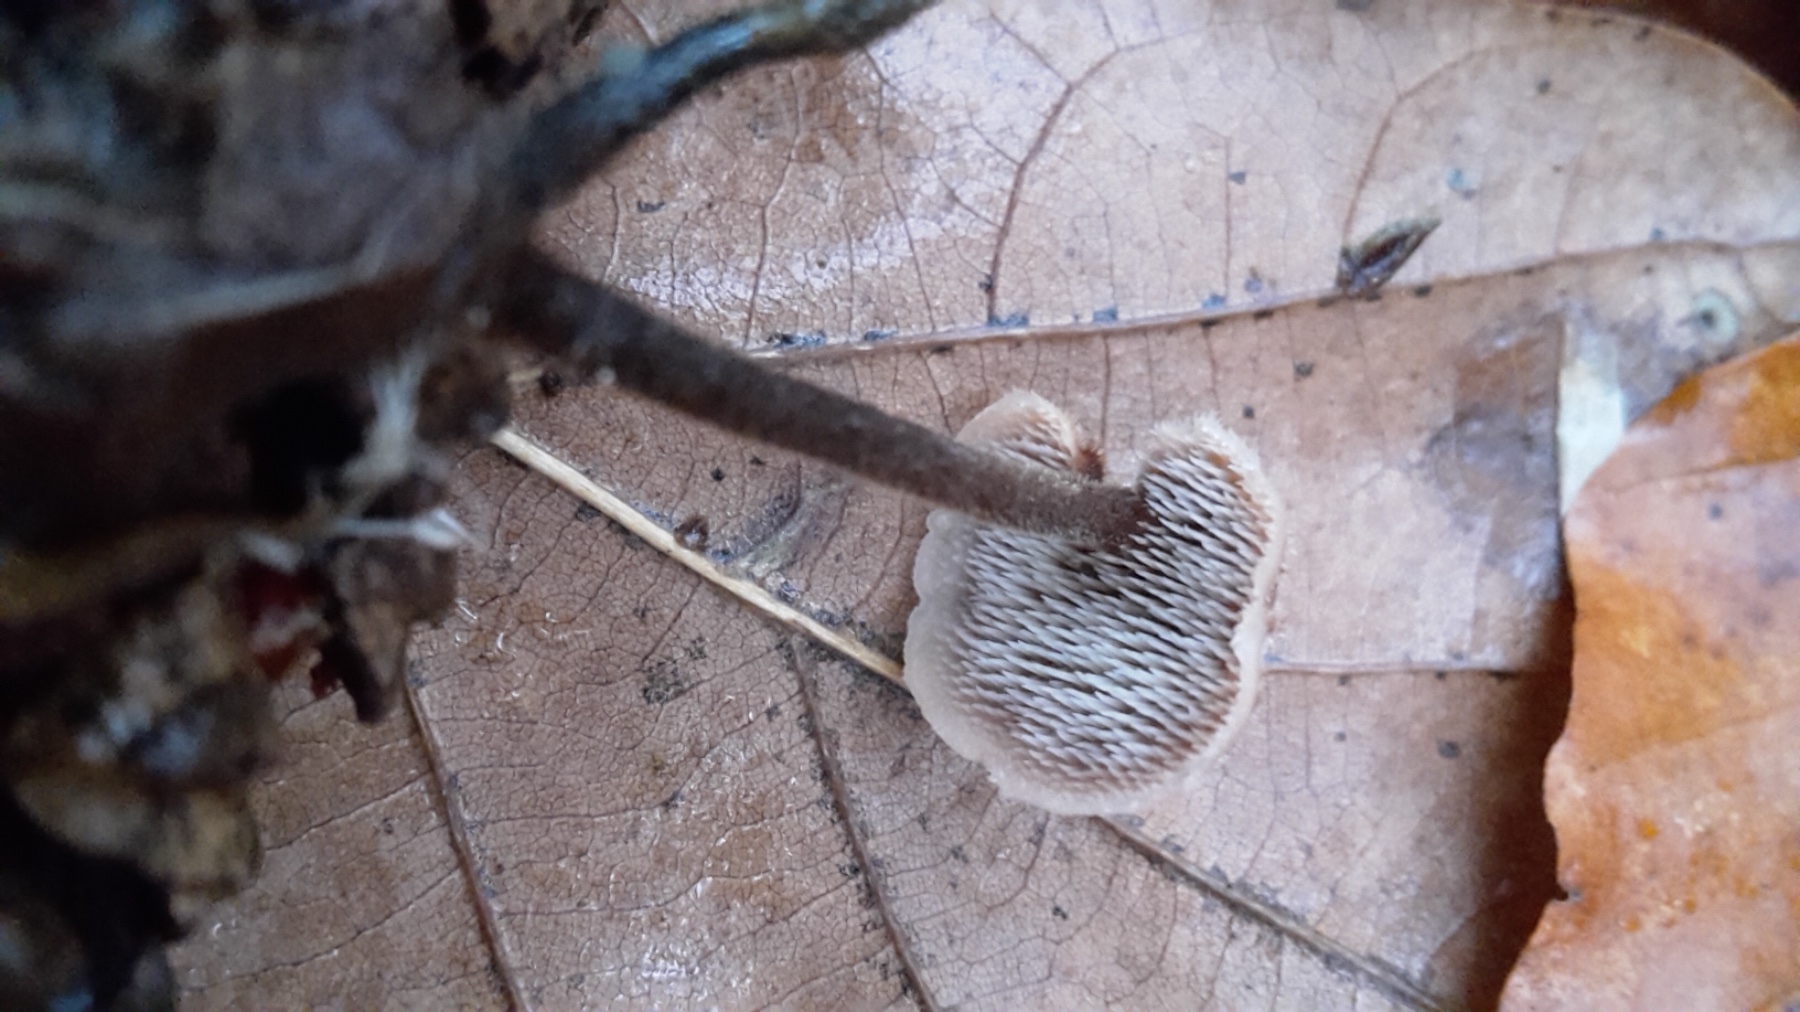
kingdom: Fungi
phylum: Basidiomycota
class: Agaricomycetes
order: Russulales
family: Auriscalpiaceae
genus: Auriscalpium
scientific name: Auriscalpium vulgare
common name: koglepigsvamp
